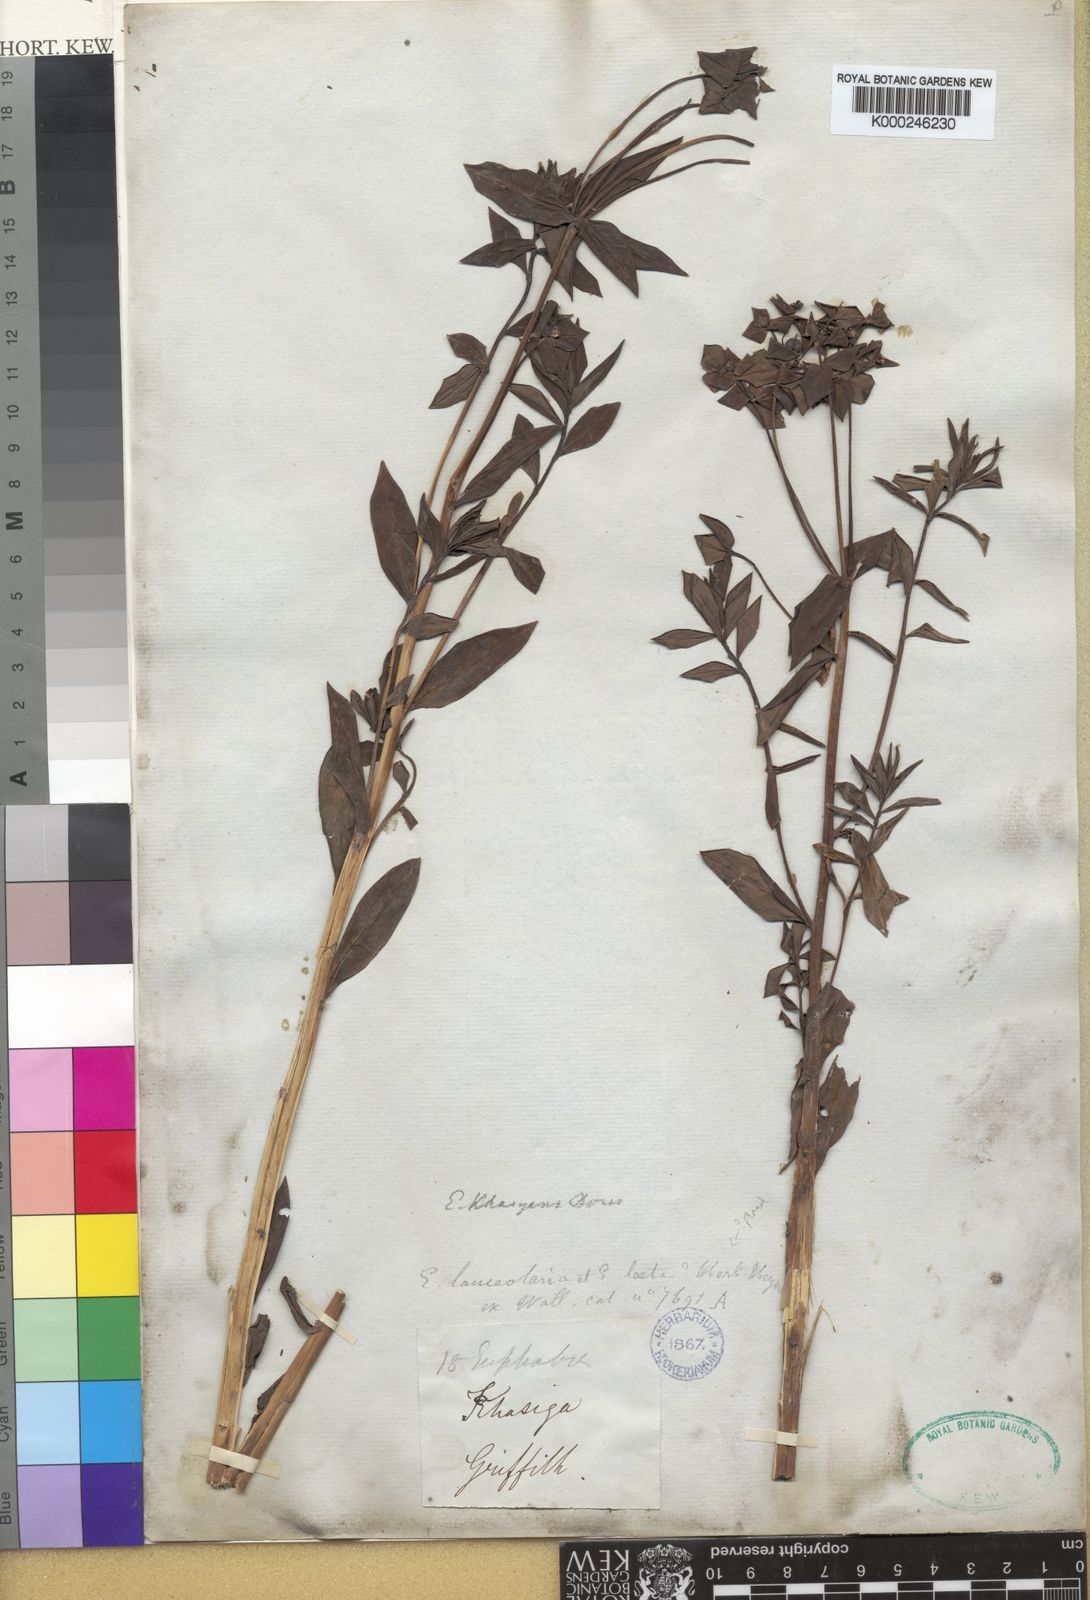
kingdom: Plantae
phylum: Tracheophyta
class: Magnoliopsida
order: Malpighiales
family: Euphorbiaceae
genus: Euphorbia
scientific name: Euphorbia khasyana
